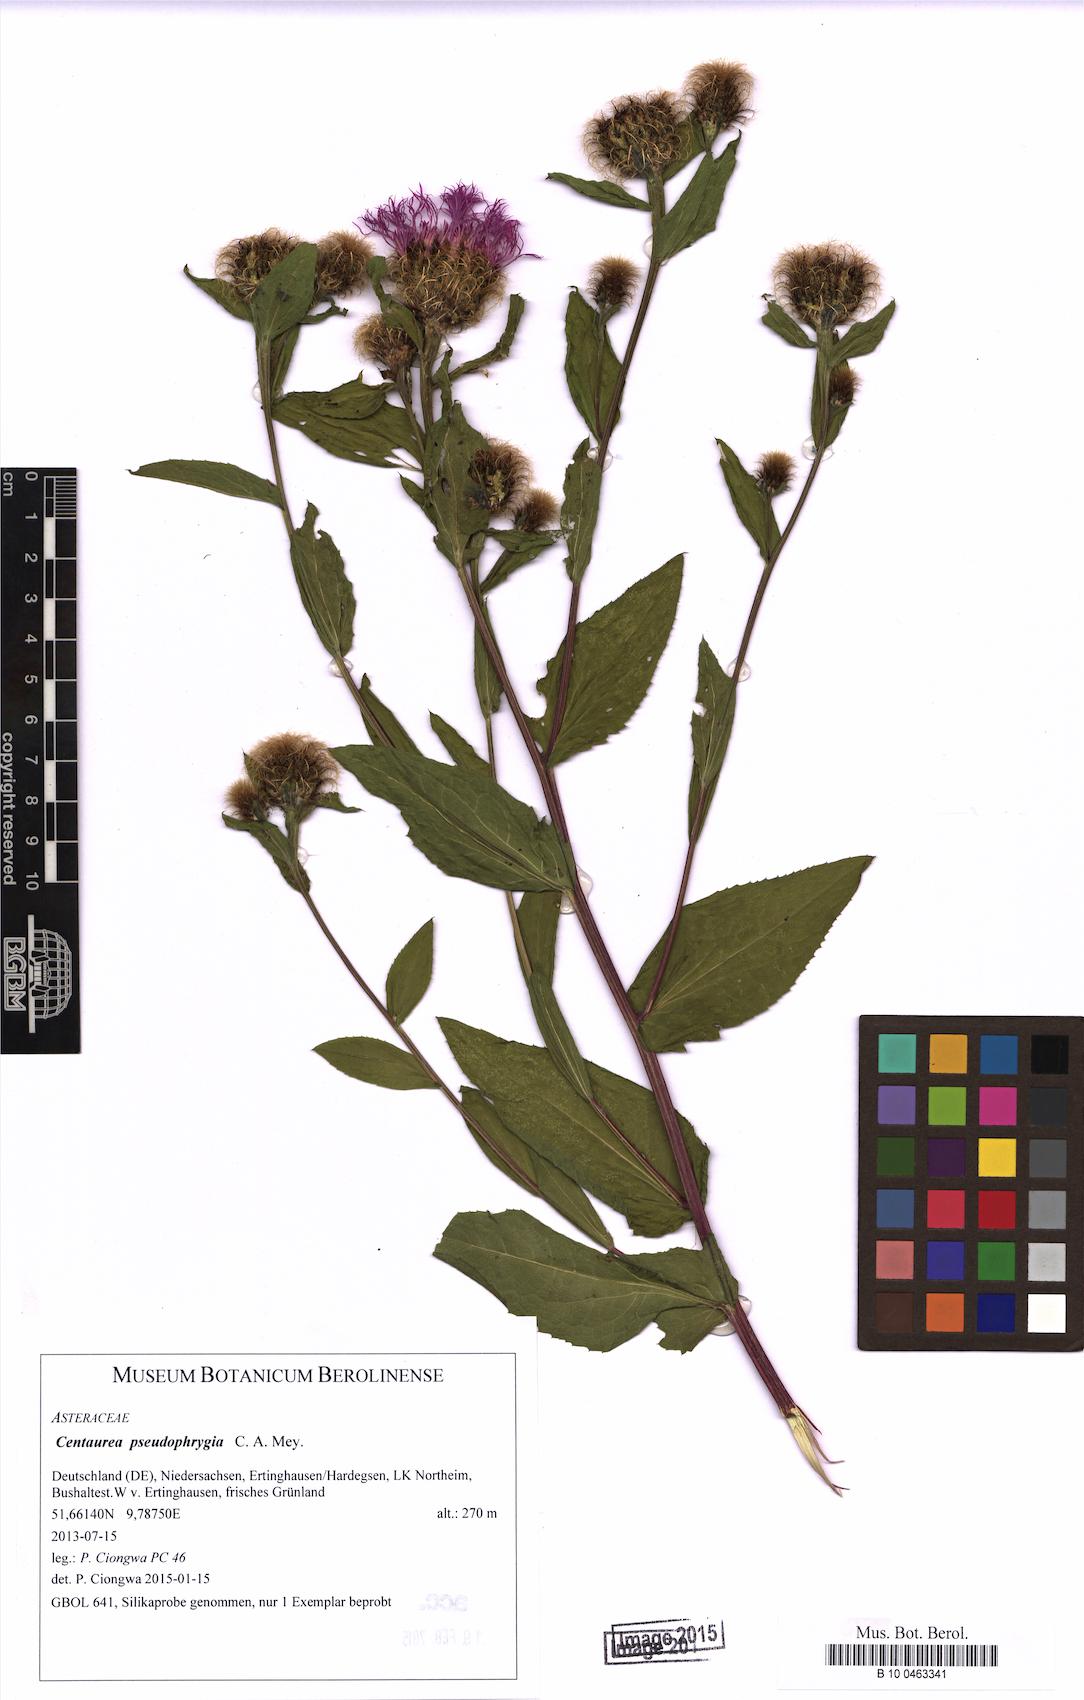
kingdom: Plantae
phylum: Tracheophyta
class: Magnoliopsida
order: Asterales
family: Asteraceae
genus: Centaurea
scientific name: Centaurea pseudophrygia
